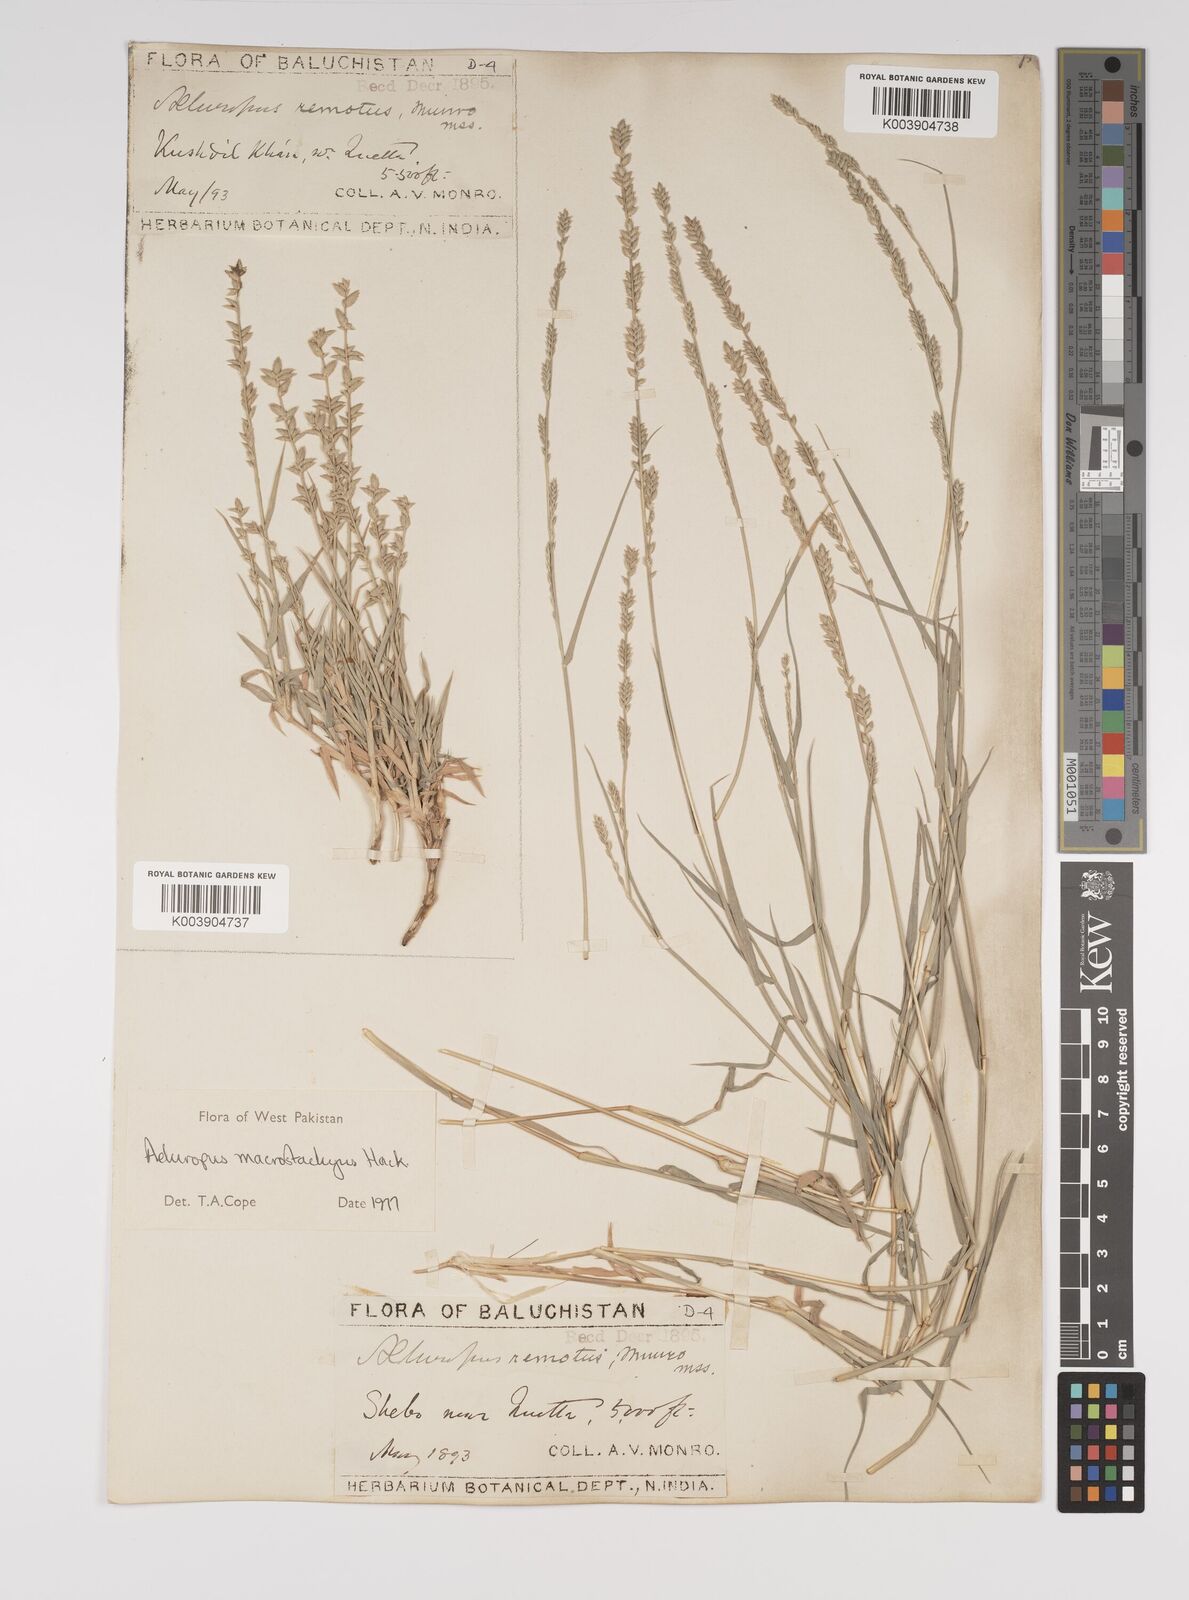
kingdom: Plantae
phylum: Tracheophyta
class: Liliopsida
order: Poales
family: Poaceae
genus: Aeluropus
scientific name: Aeluropus macrostachyus
